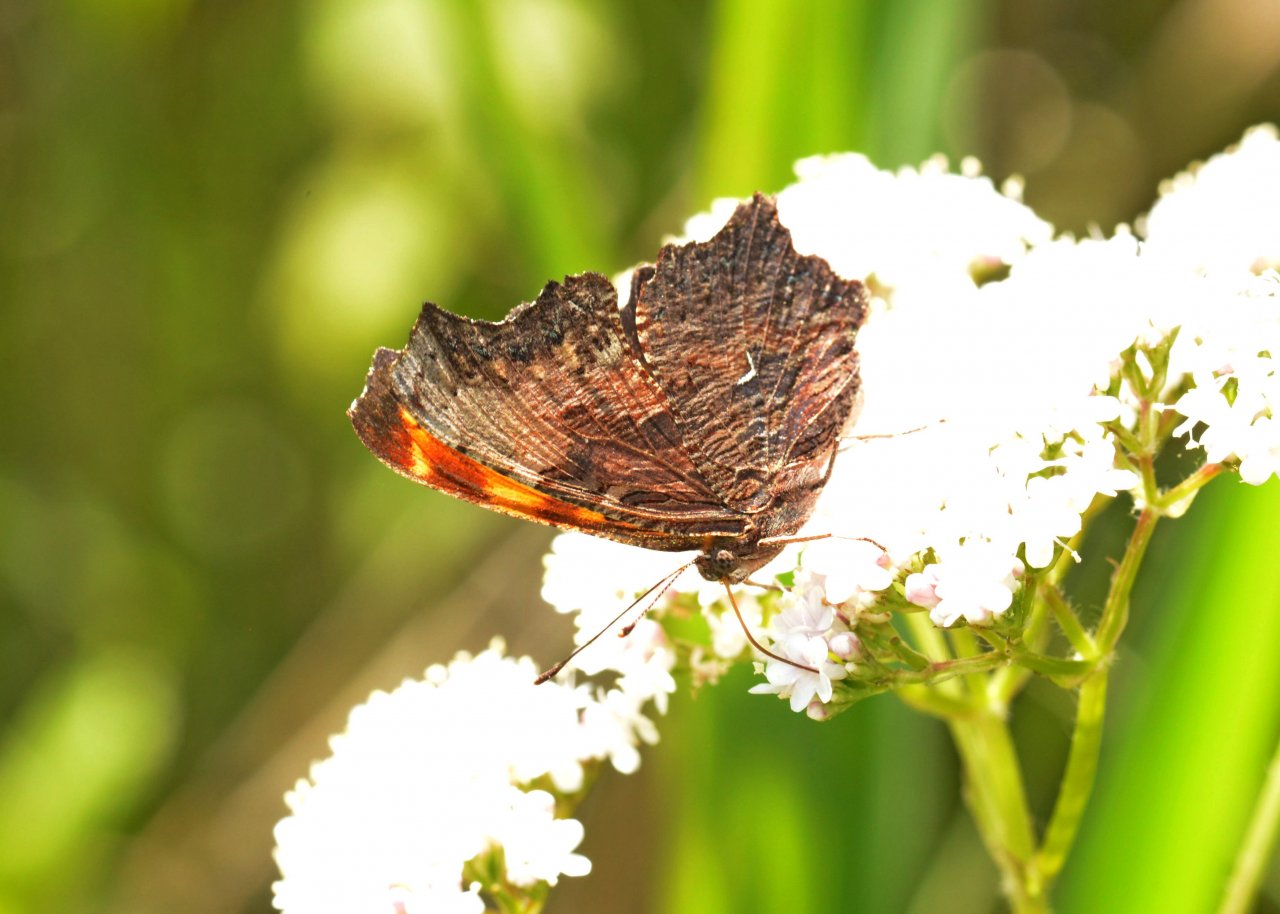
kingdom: Animalia
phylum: Arthropoda
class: Insecta
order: Lepidoptera
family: Nymphalidae
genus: Polygonia
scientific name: Polygonia progne
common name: Gray Comma
